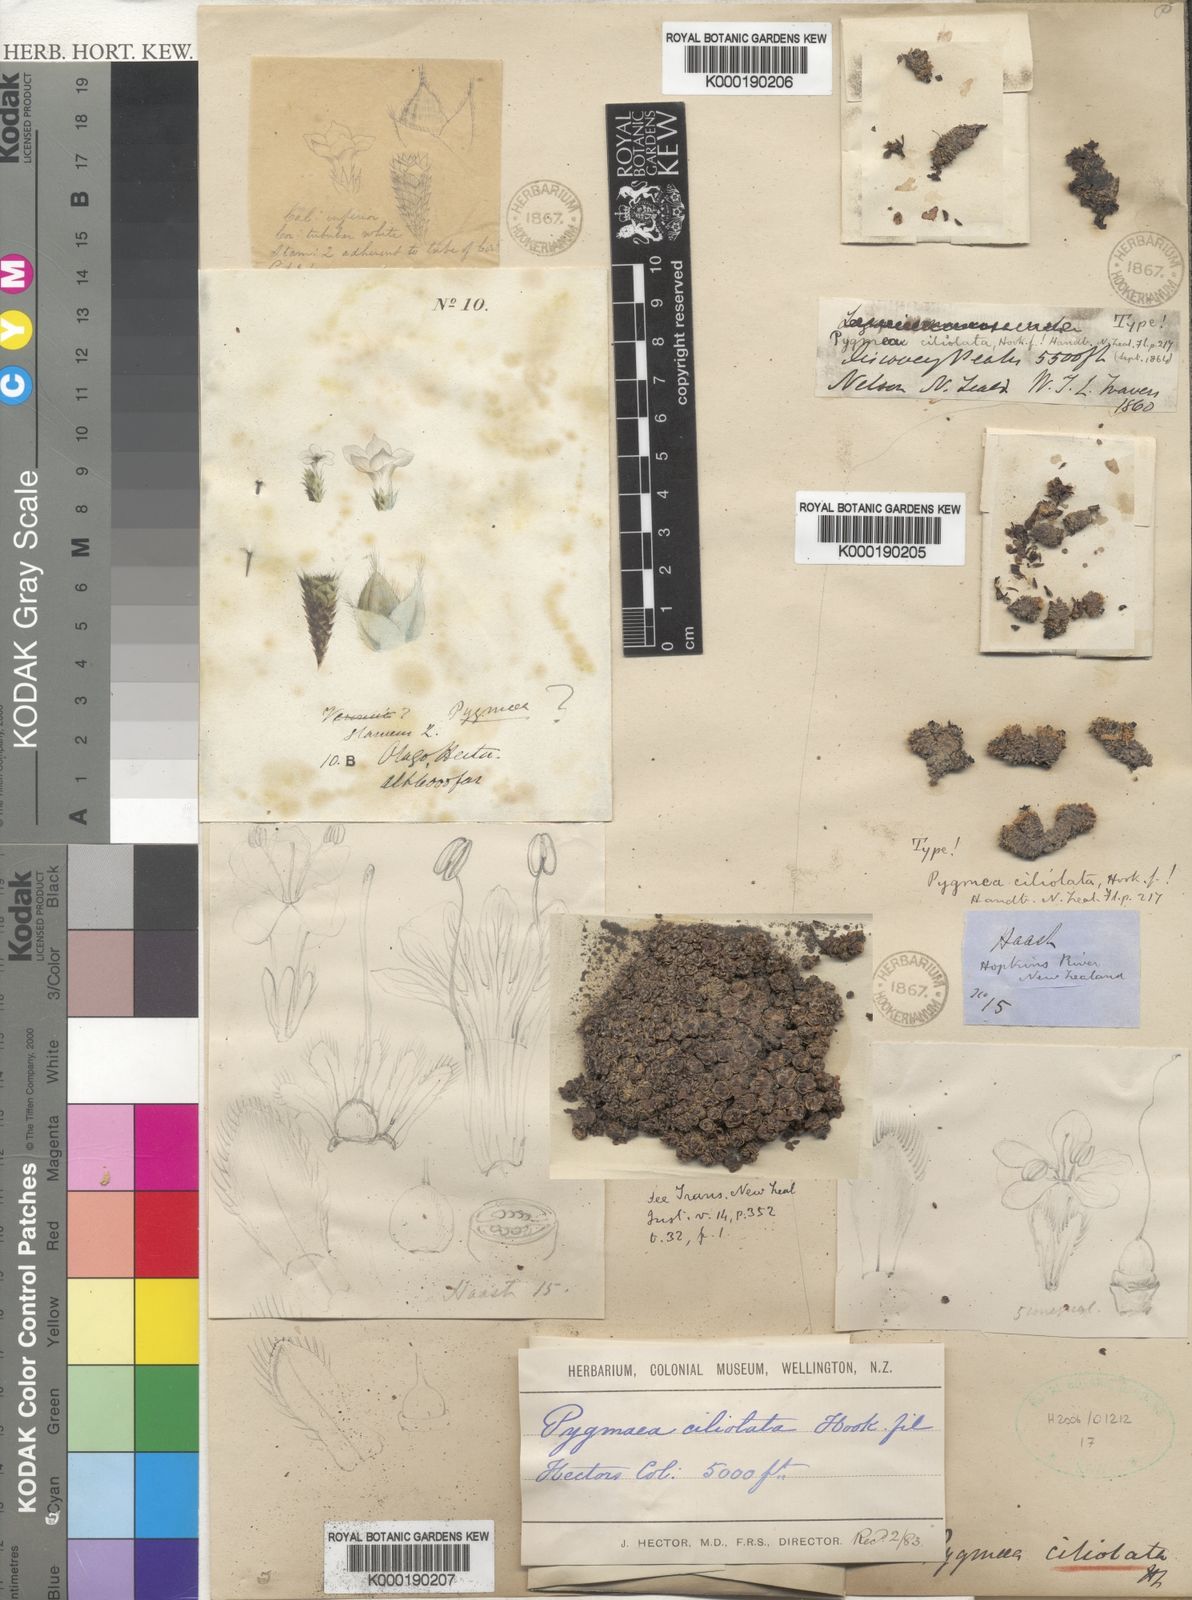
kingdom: Plantae
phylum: Tracheophyta
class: Magnoliopsida
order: Lamiales
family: Plantaginaceae
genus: Veronica
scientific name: Veronica ciliolata
